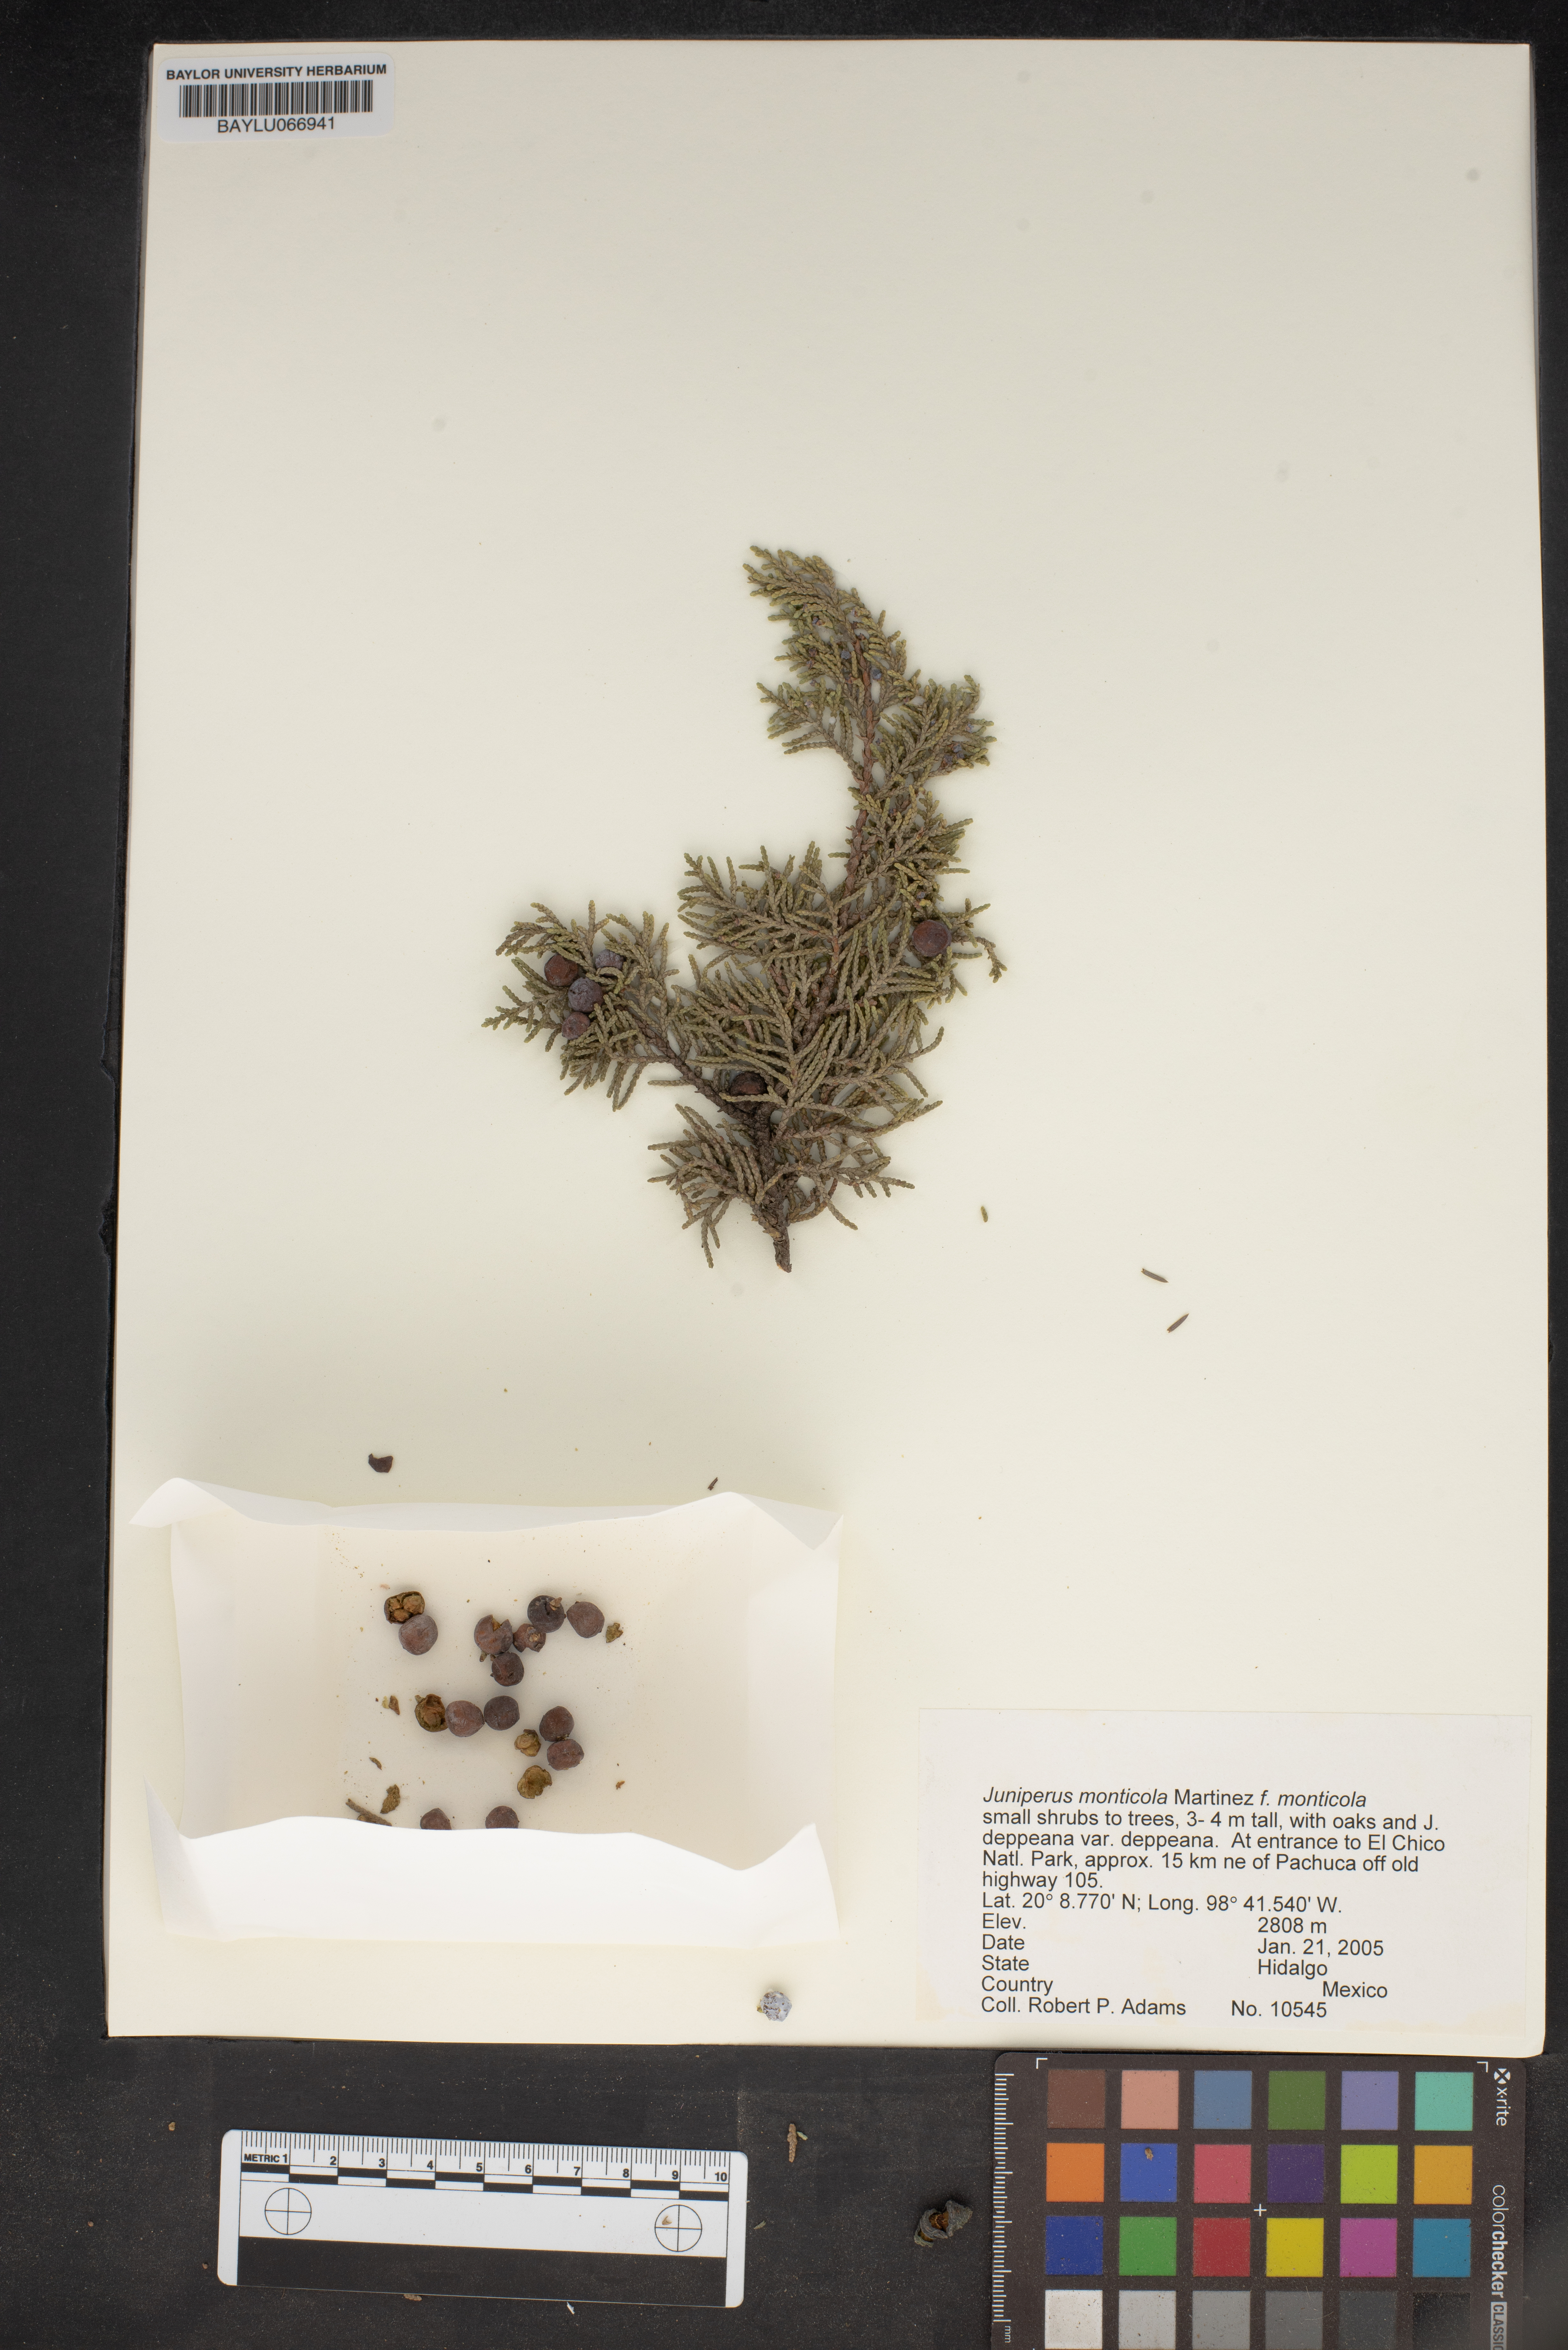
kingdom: Plantae
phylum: Tracheophyta
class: Pinopsida
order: Pinales
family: Cupressaceae
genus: Juniperus
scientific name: Juniperus monticola
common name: Mexican juniper
